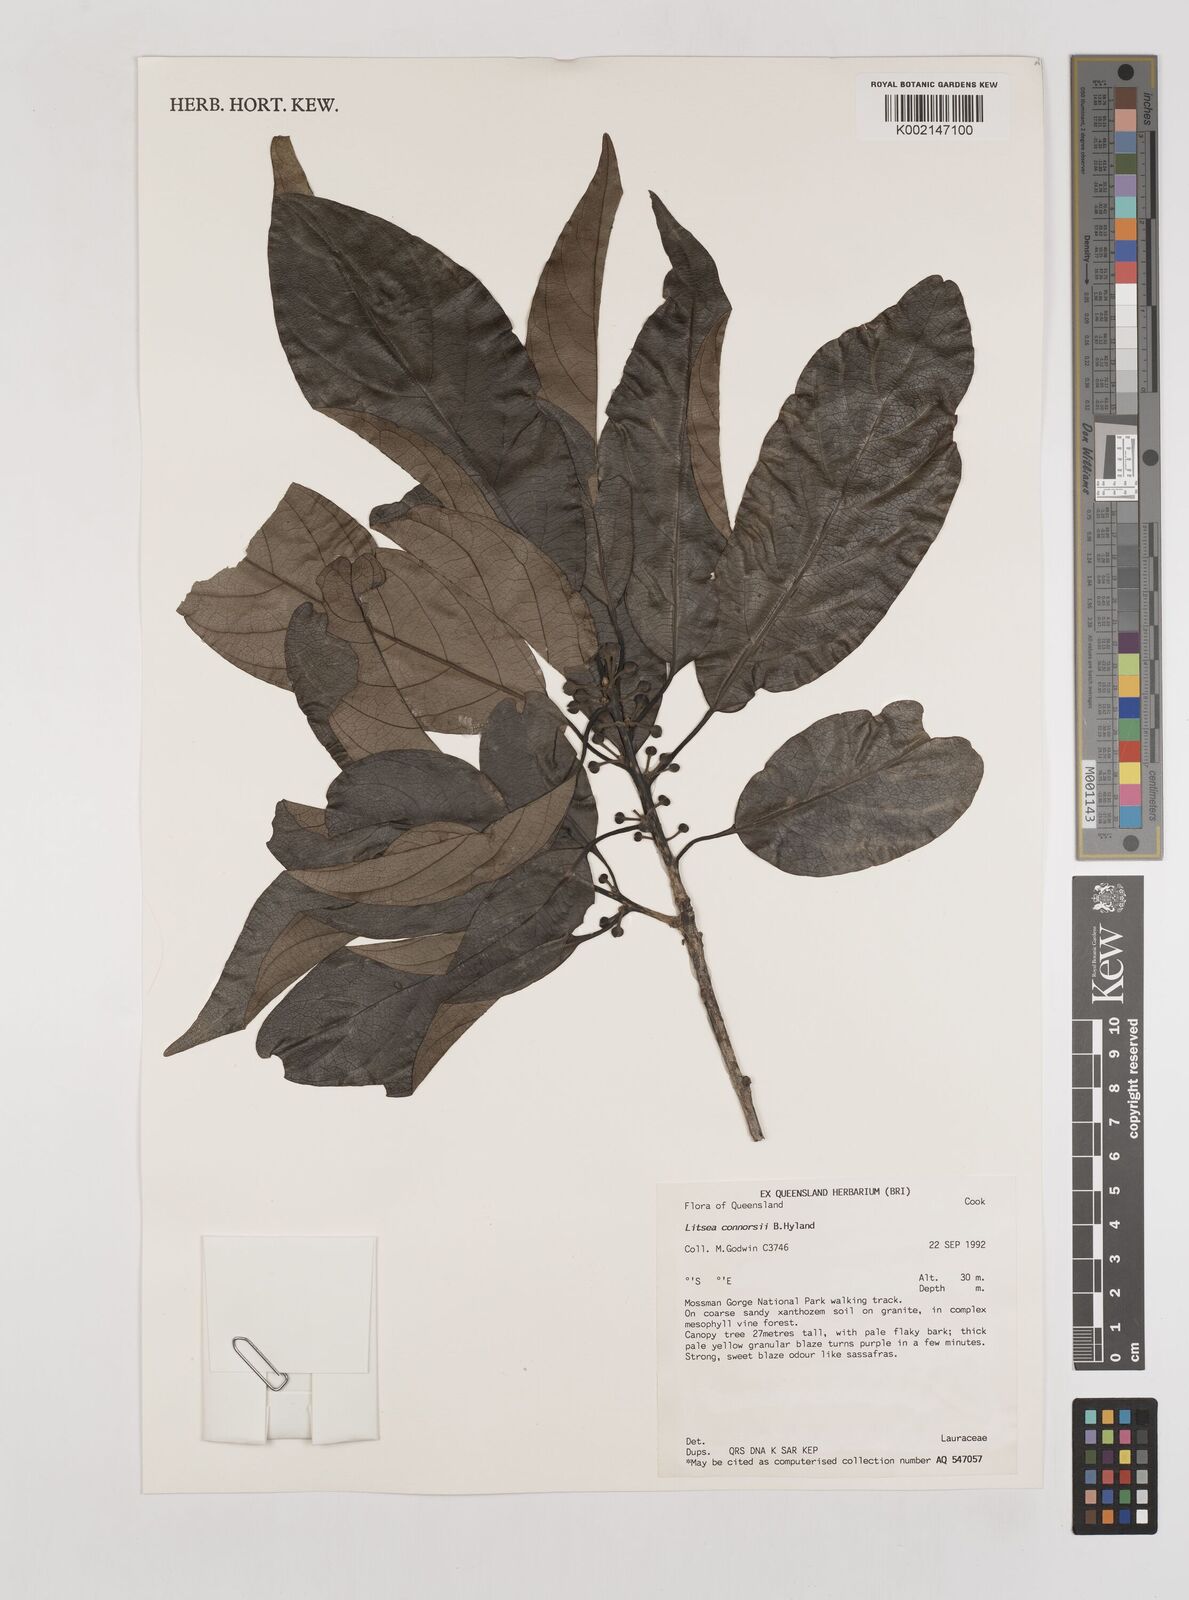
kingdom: Plantae
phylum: Tracheophyta
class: Magnoliopsida
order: Laurales
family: Lauraceae
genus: Litsea
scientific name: Litsea connorsii
